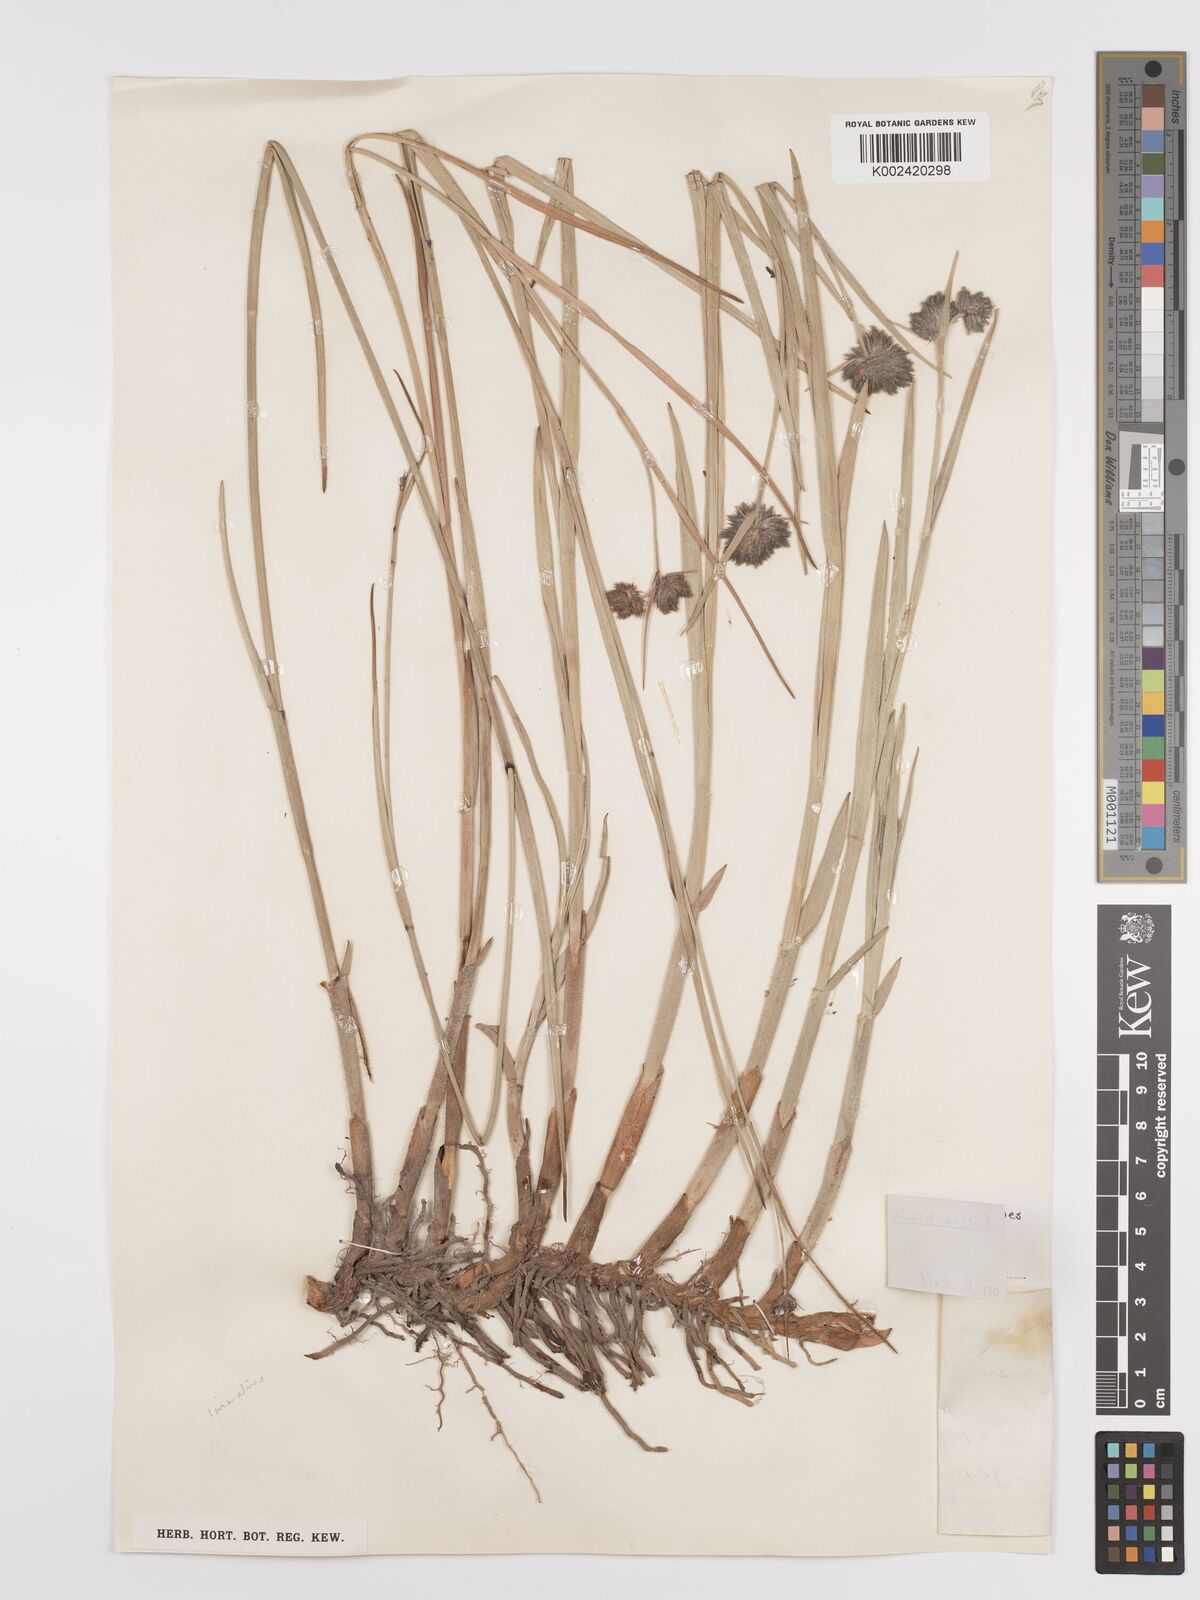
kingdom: Plantae
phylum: Tracheophyta
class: Liliopsida
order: Poales
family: Cyperaceae
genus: Fuirena
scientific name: Fuirena hirsuta
